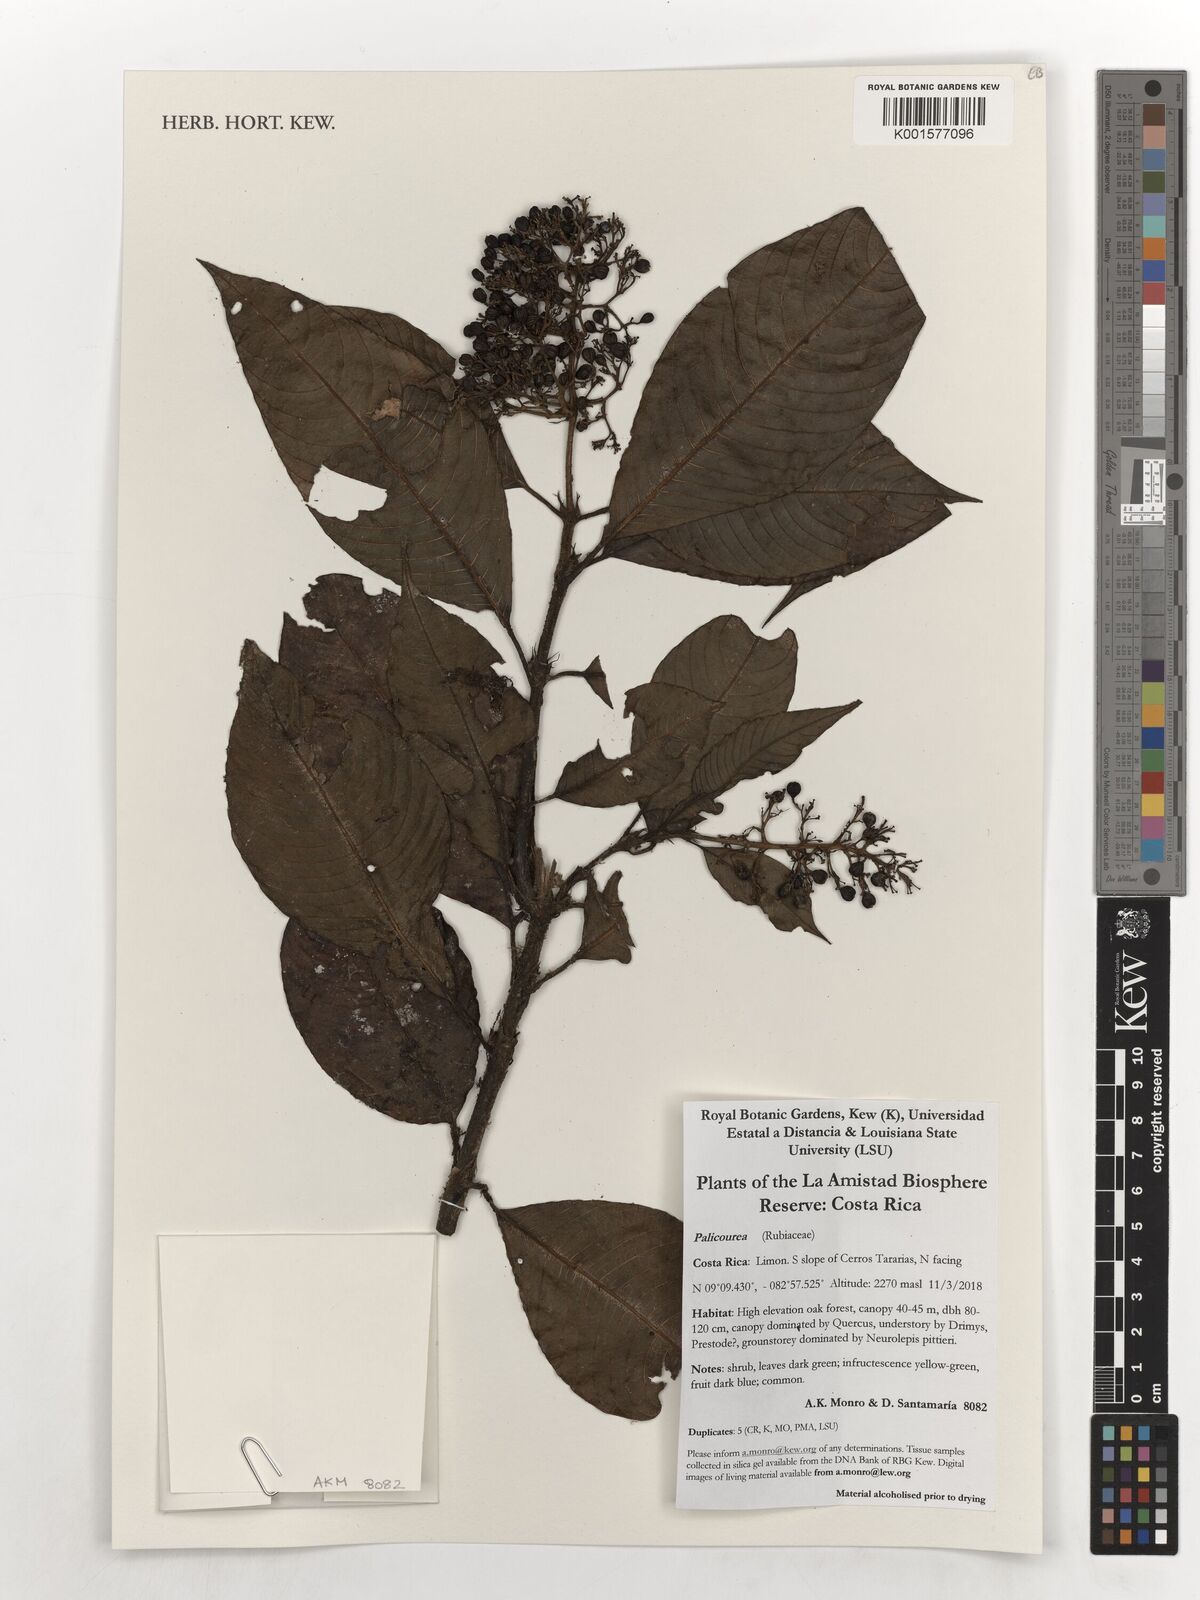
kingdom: Plantae
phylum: Tracheophyta
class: Magnoliopsida
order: Gentianales
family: Rubiaceae
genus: Palicourea
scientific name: Palicourea
